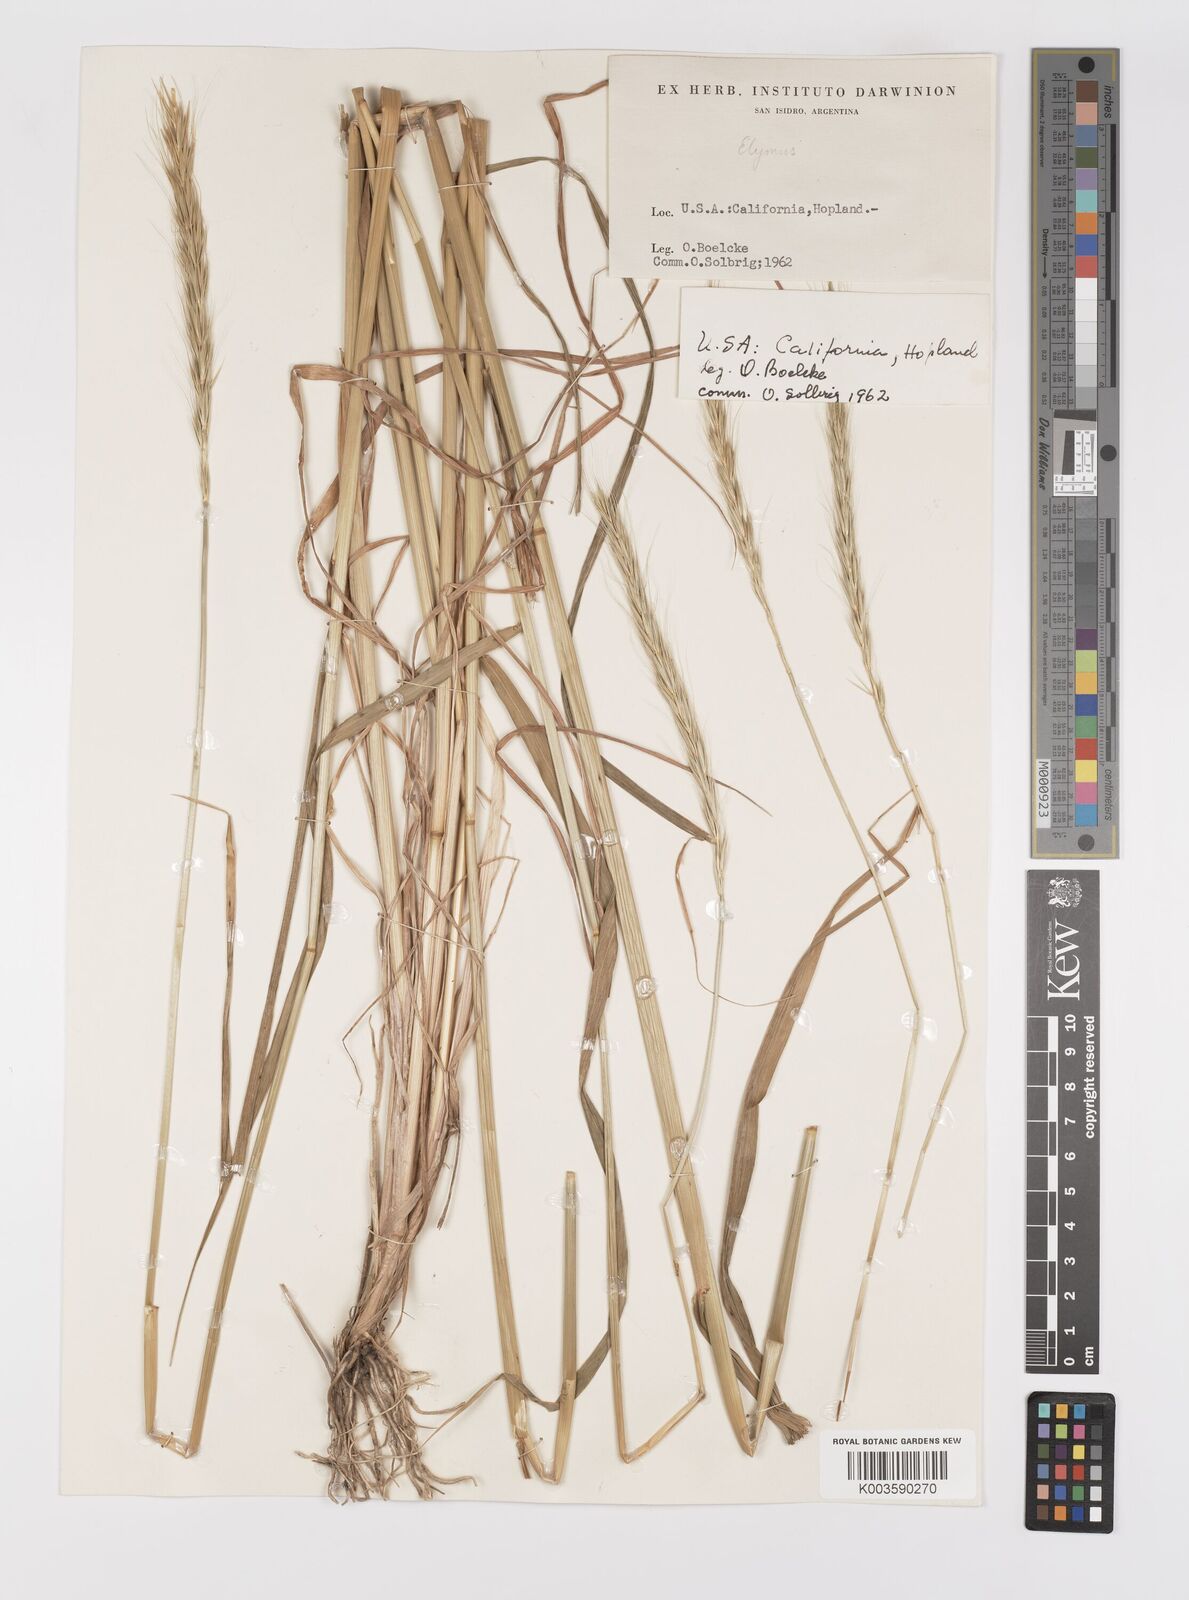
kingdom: Plantae
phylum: Tracheophyta
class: Liliopsida
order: Poales
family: Poaceae
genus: Elymus
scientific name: Elymus
